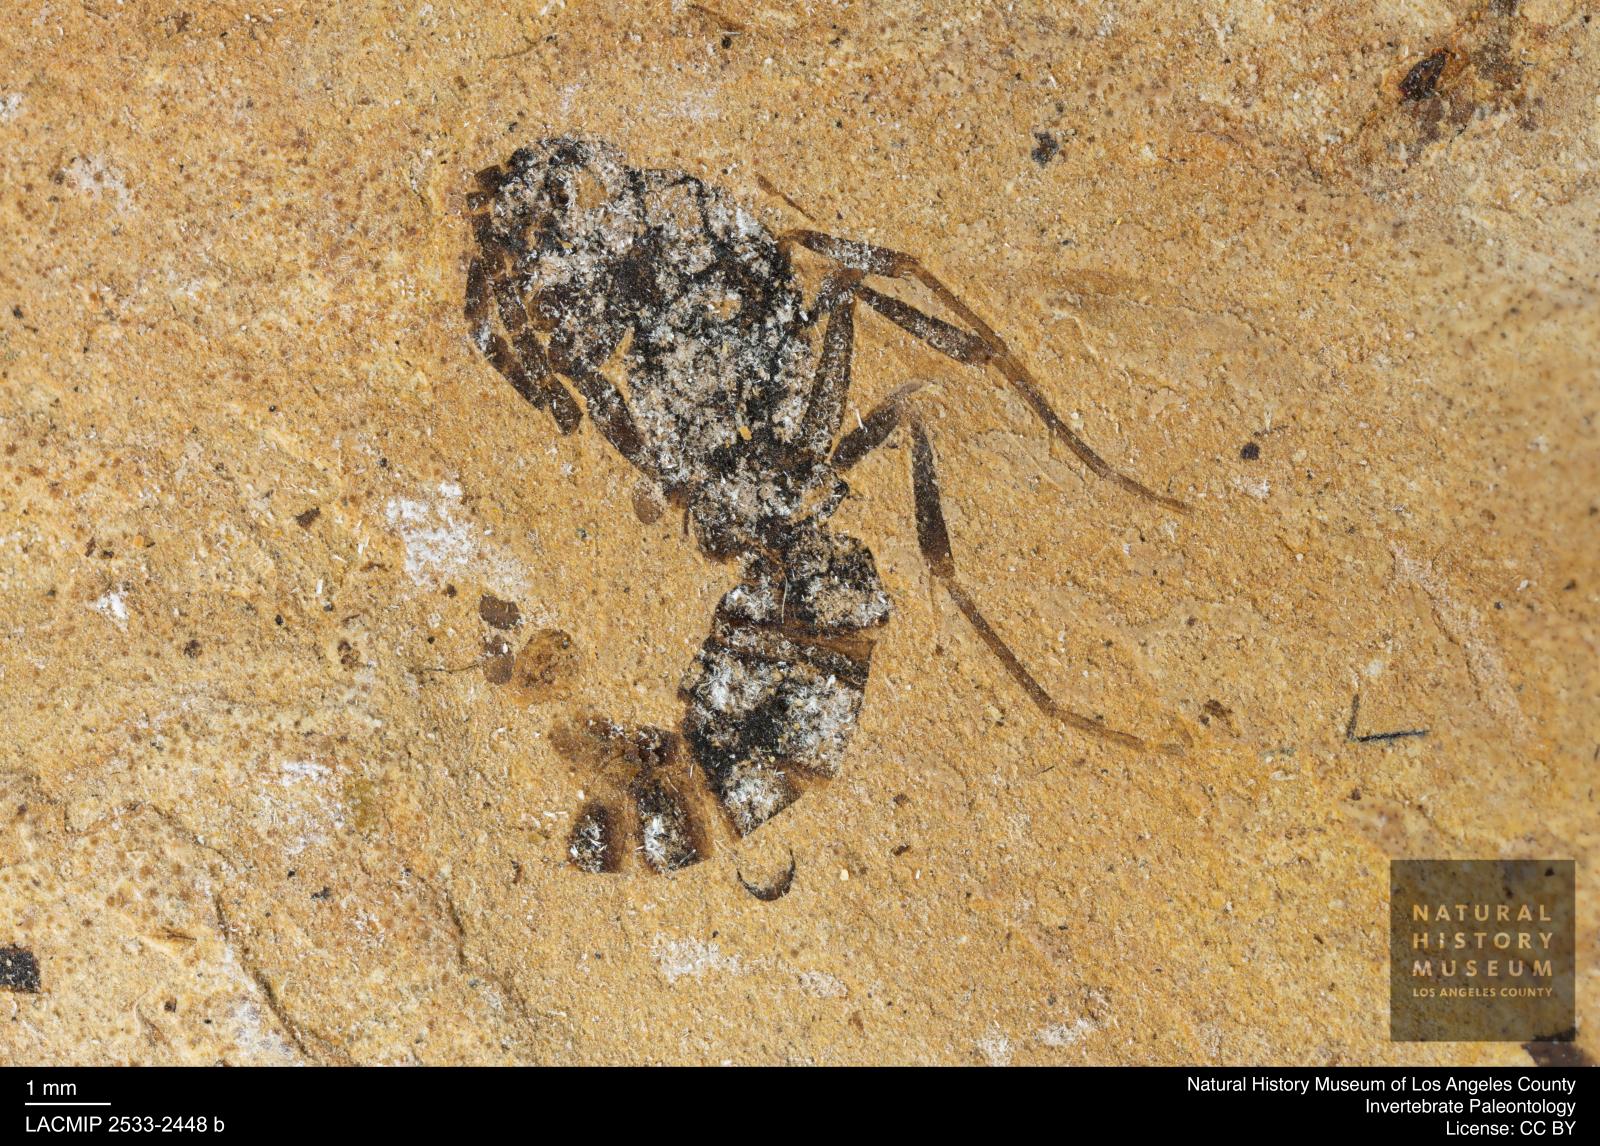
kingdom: Animalia
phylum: Arthropoda
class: Insecta
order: Hymenoptera
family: Formicidae
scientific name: Formicidae
